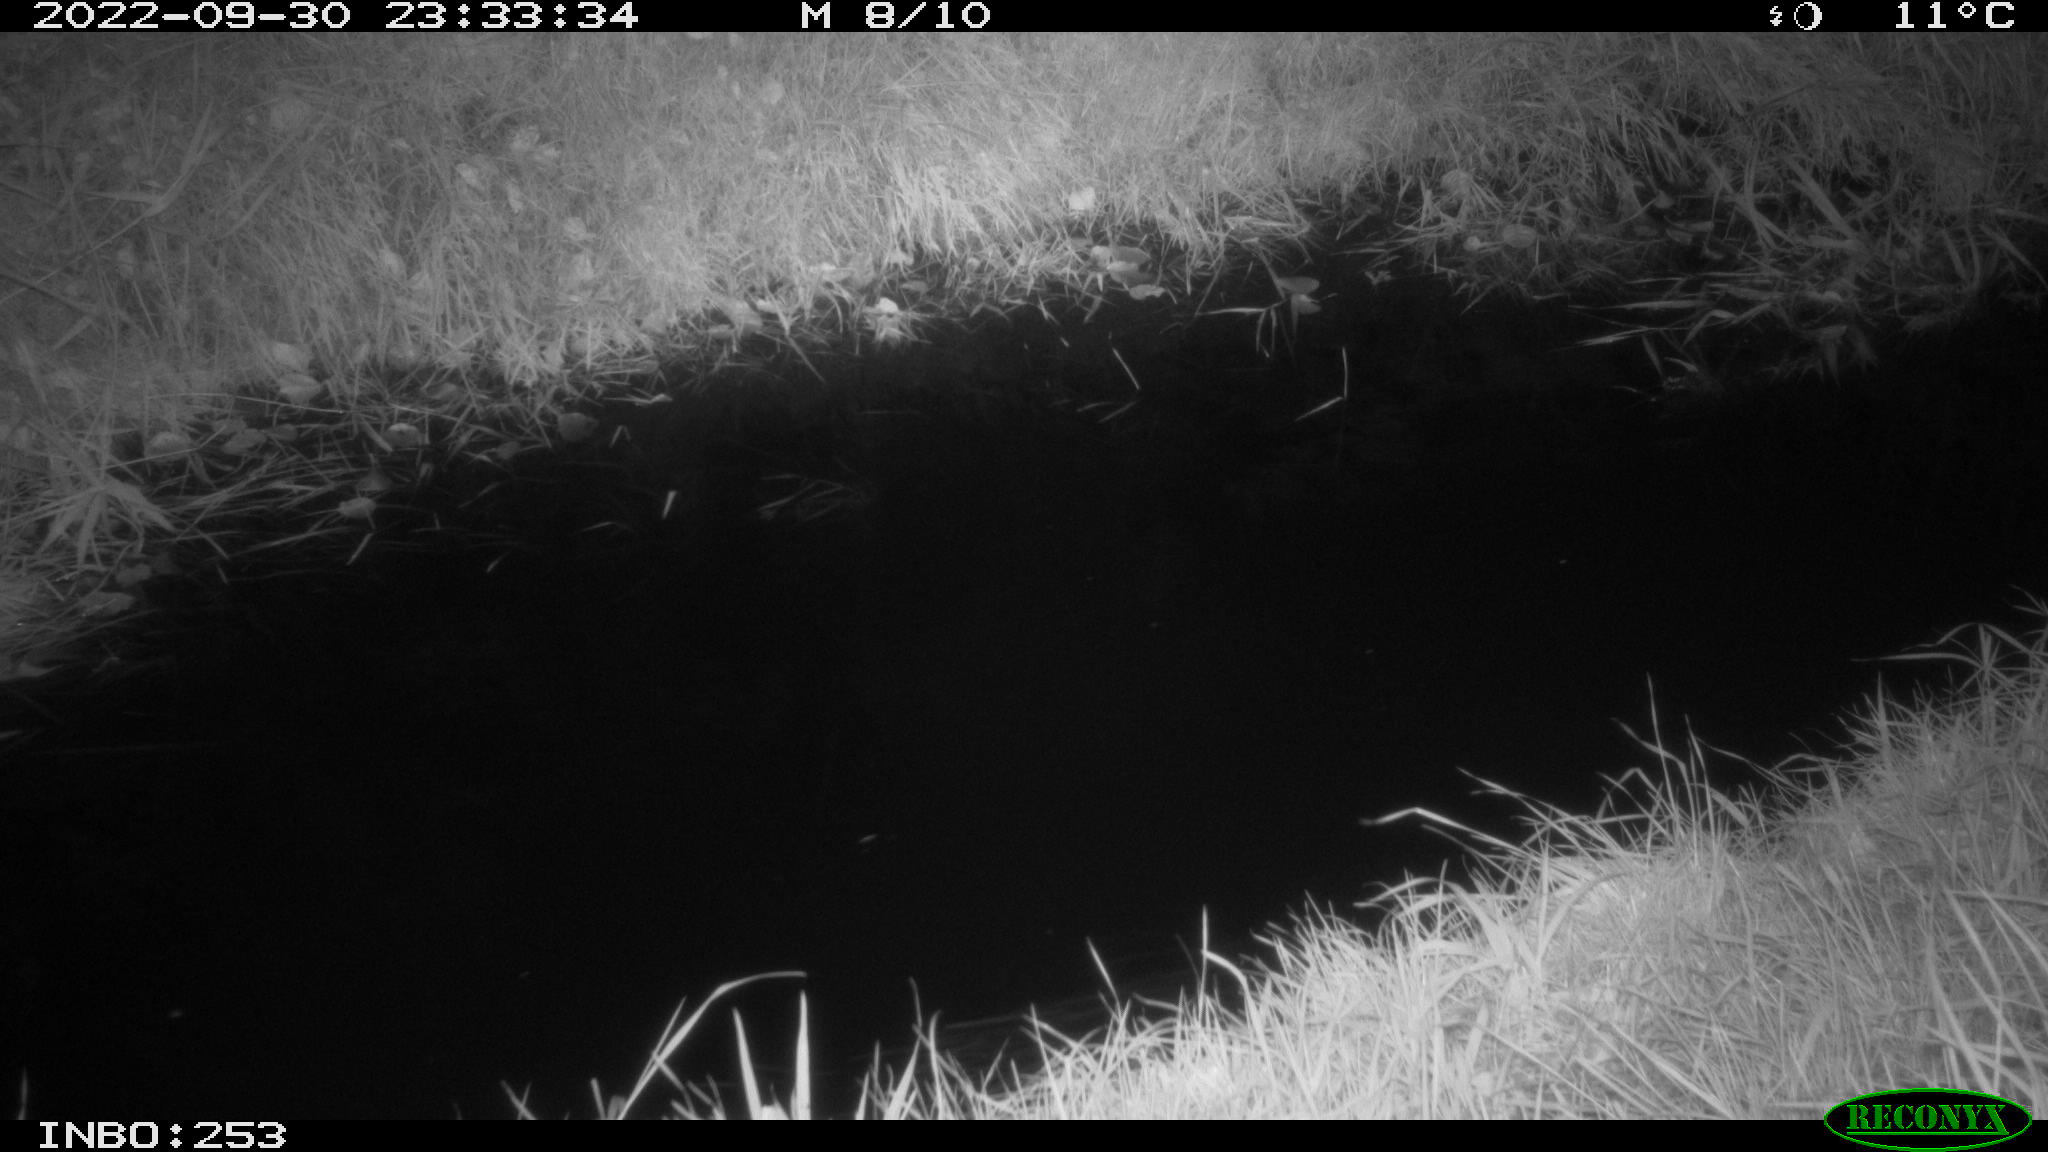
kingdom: Animalia
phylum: Chordata
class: Mammalia
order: Artiodactyla
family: Cervidae
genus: Capreolus
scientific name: Capreolus capreolus
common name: Western roe deer
